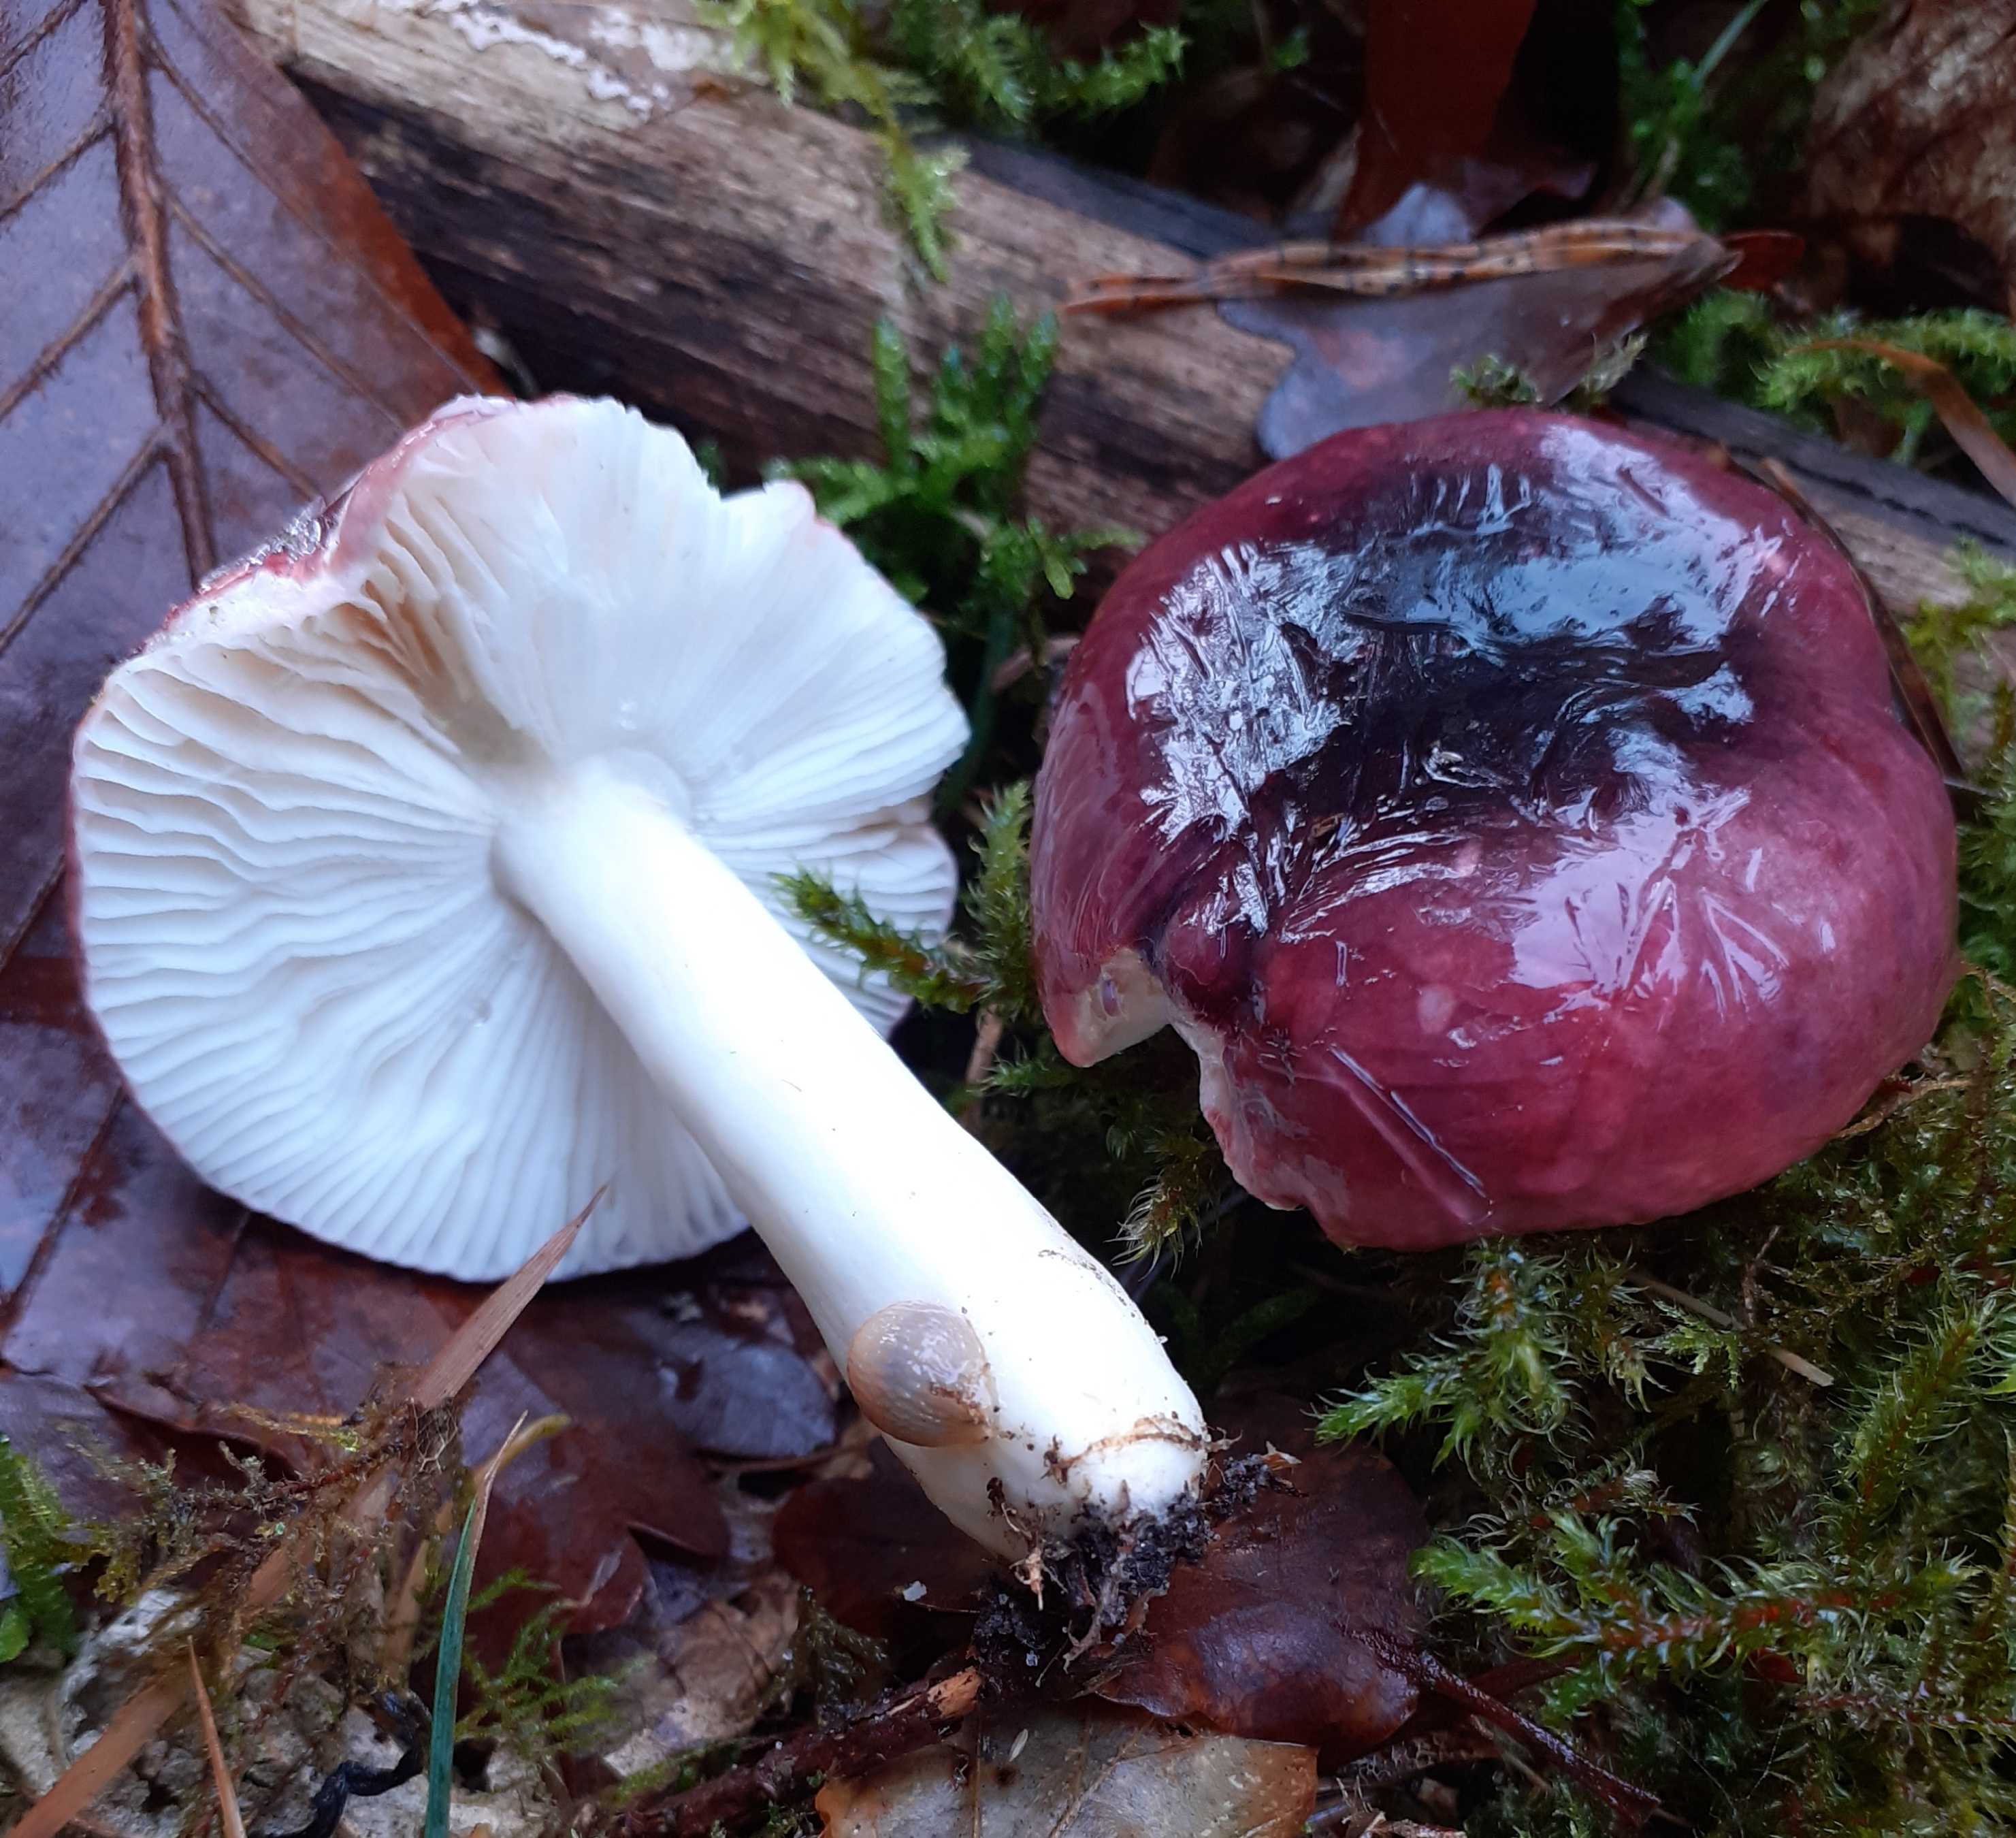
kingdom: Fungi
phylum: Basidiomycota
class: Agaricomycetes
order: Russulales
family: Russulaceae
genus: Russula
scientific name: Russula atrorubens
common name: sortrød skørhat
